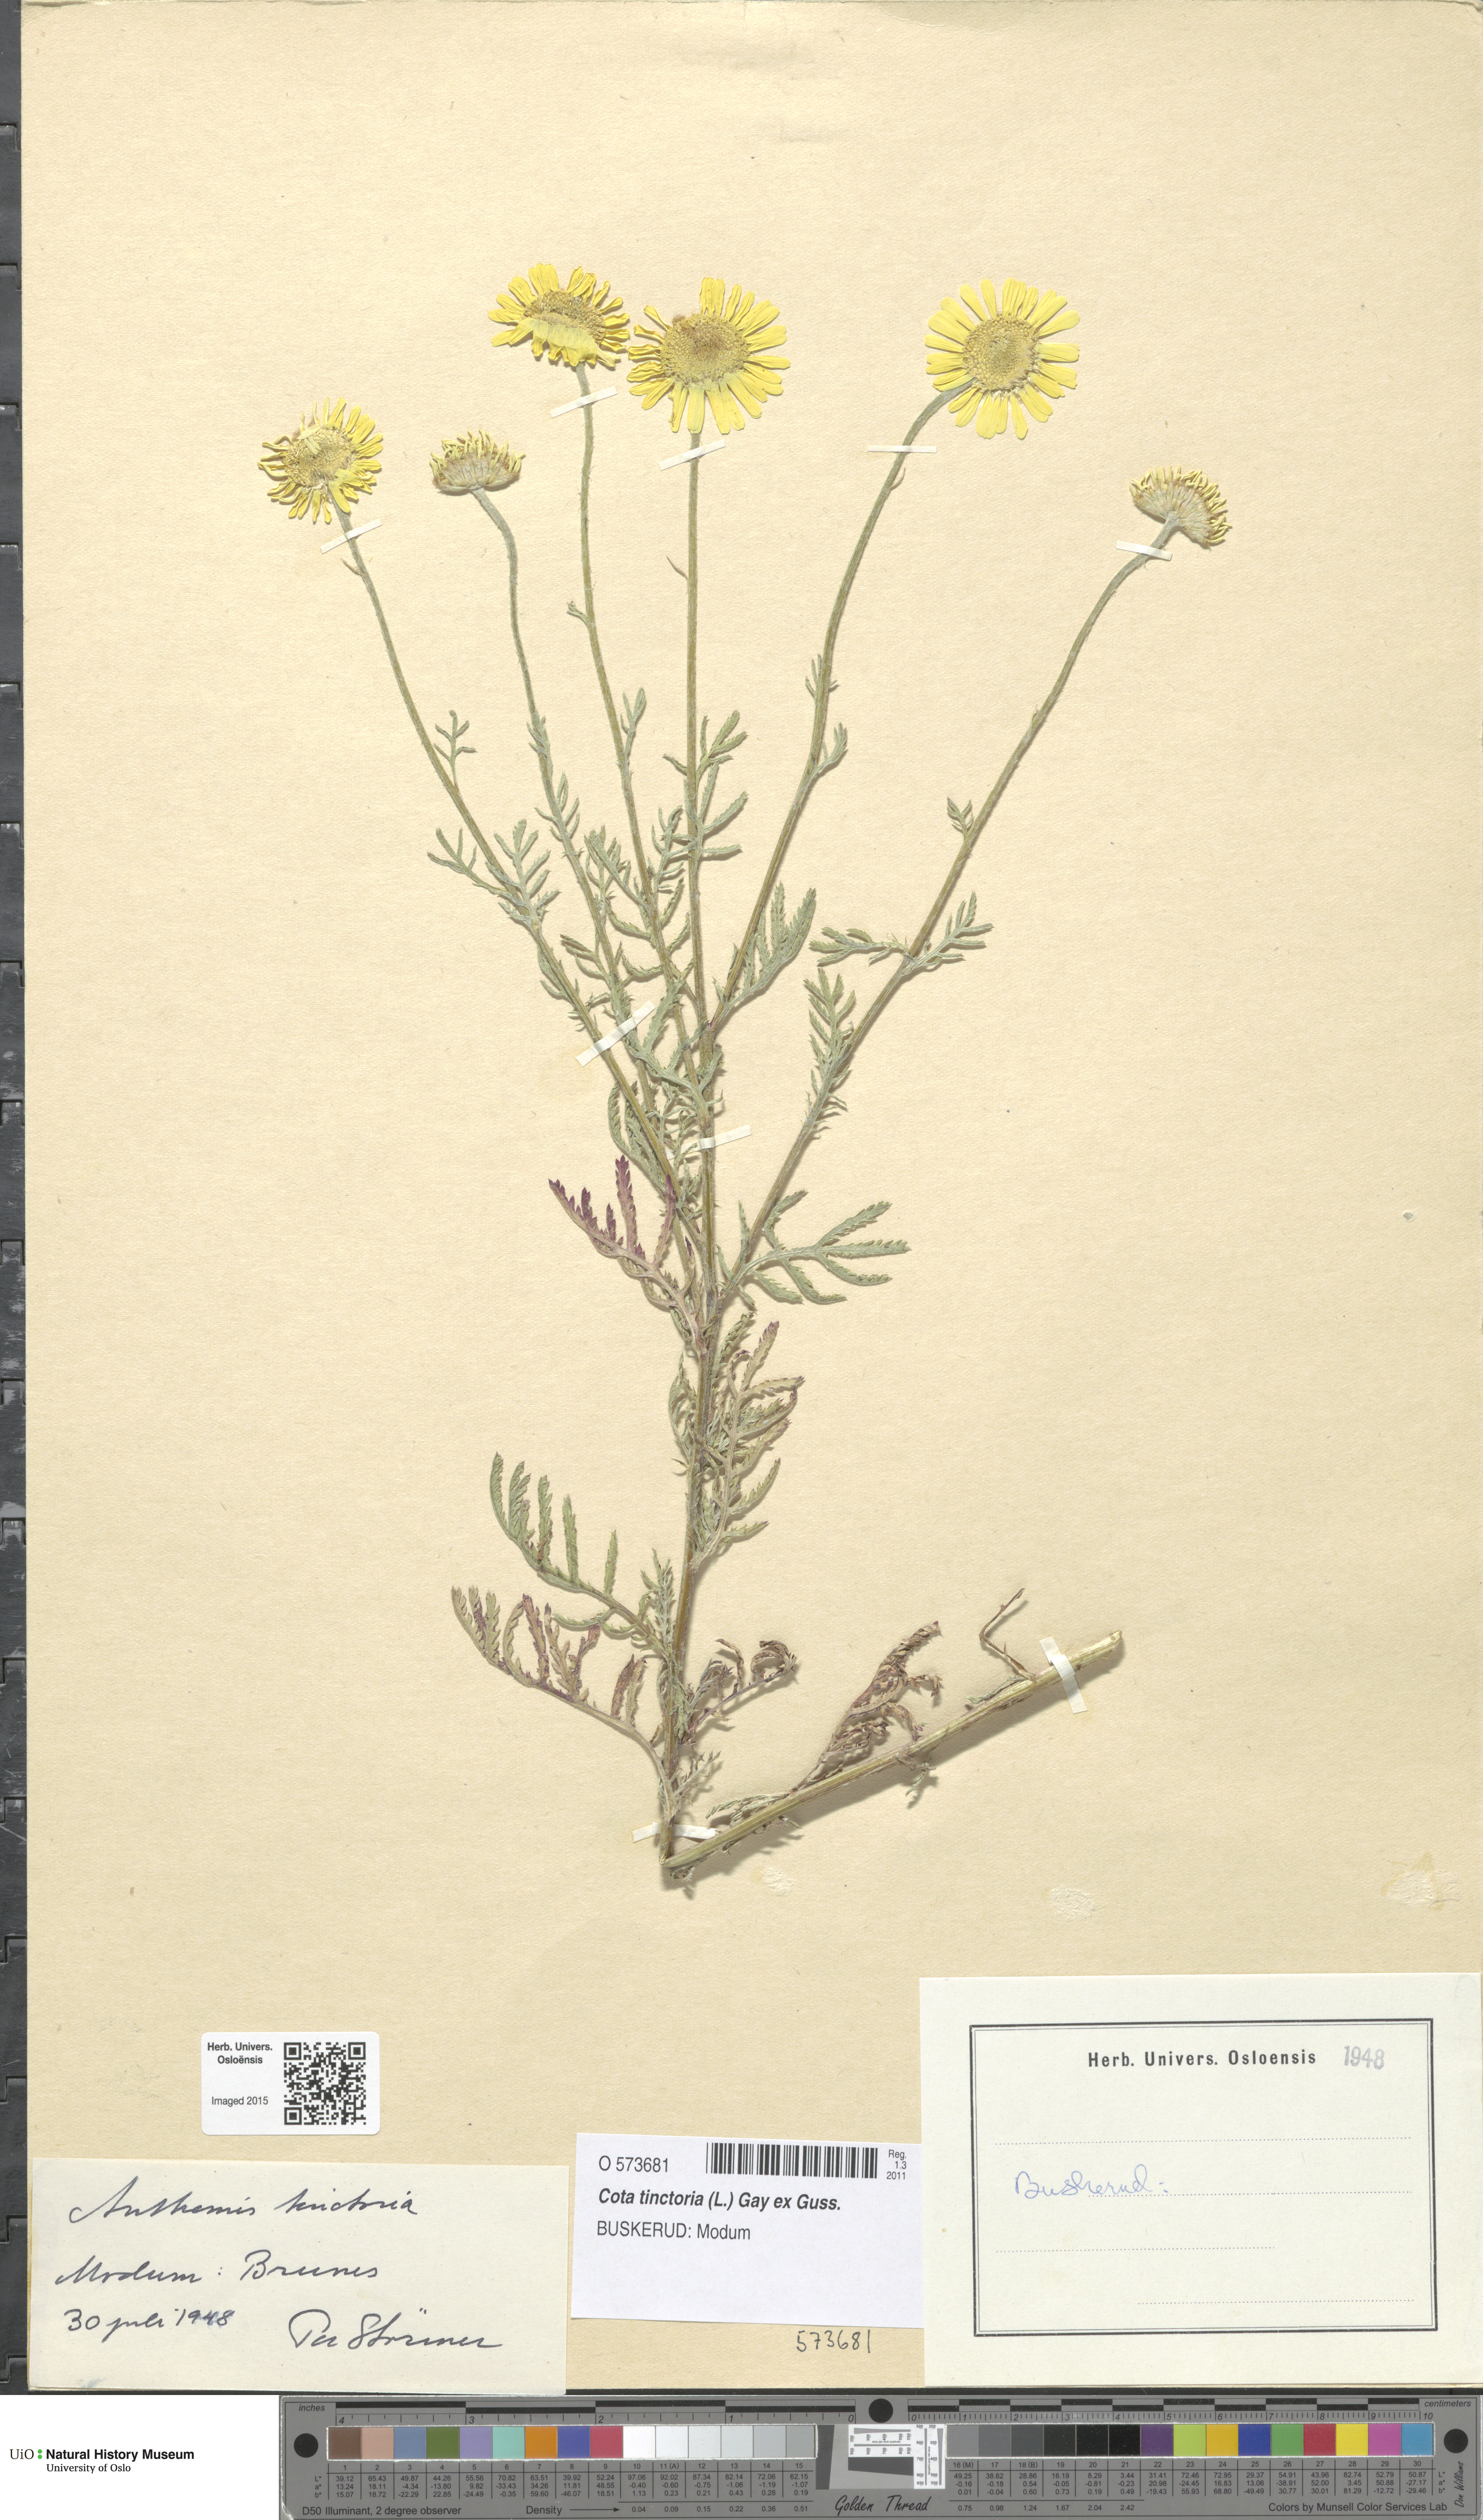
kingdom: Plantae
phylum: Tracheophyta
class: Magnoliopsida
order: Asterales
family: Asteraceae
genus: Cota
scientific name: Cota tinctoria
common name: Golden chamomile
